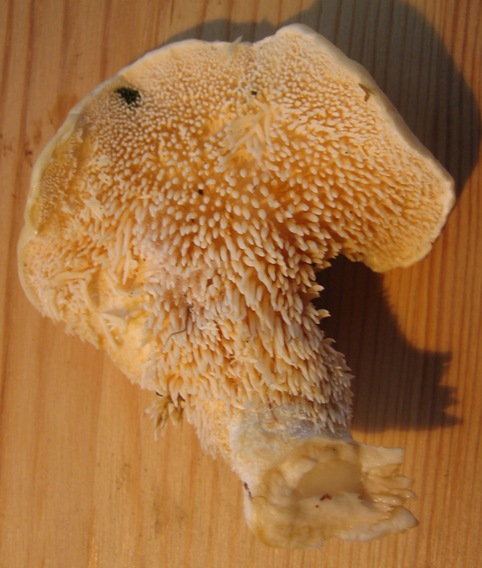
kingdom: Fungi
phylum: Basidiomycota
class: Agaricomycetes
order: Cantharellales
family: Hydnaceae
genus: Hydnum
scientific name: Hydnum repandum
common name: almindelig pigsvamp
